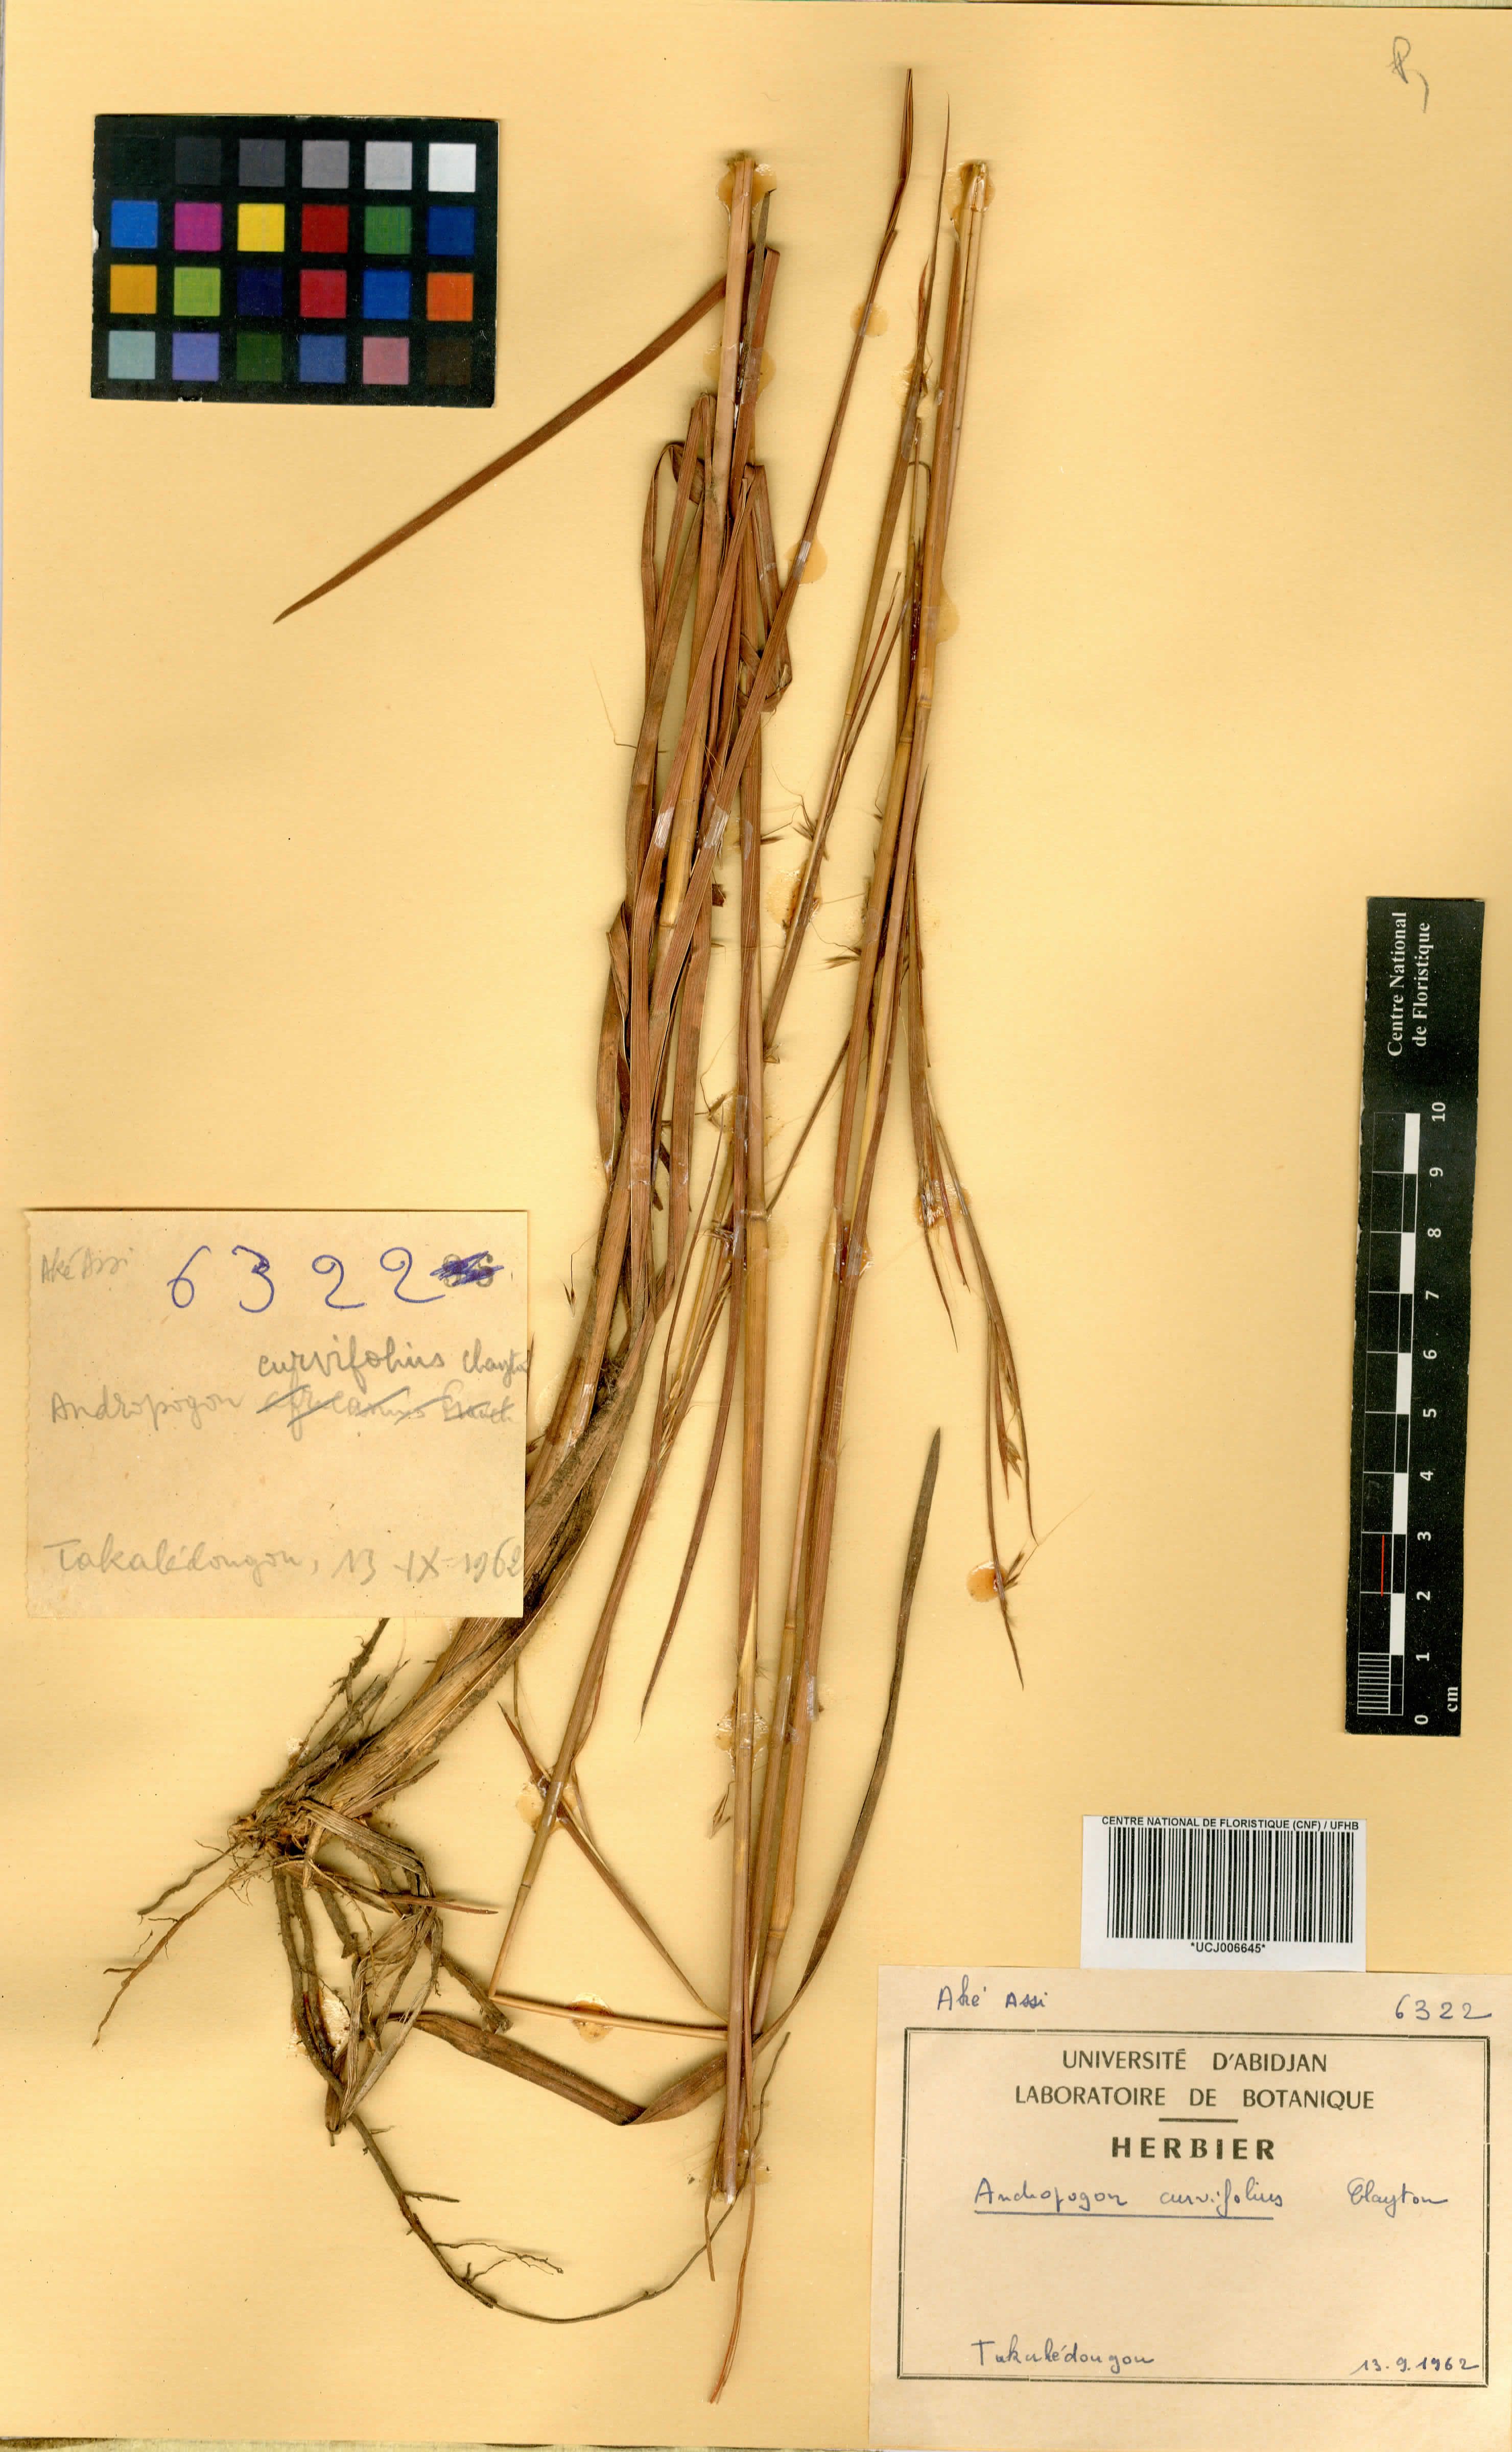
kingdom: Plantae
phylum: Tracheophyta
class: Liliopsida
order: Poales
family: Poaceae
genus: Andropogon
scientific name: Andropogon curvifolius
